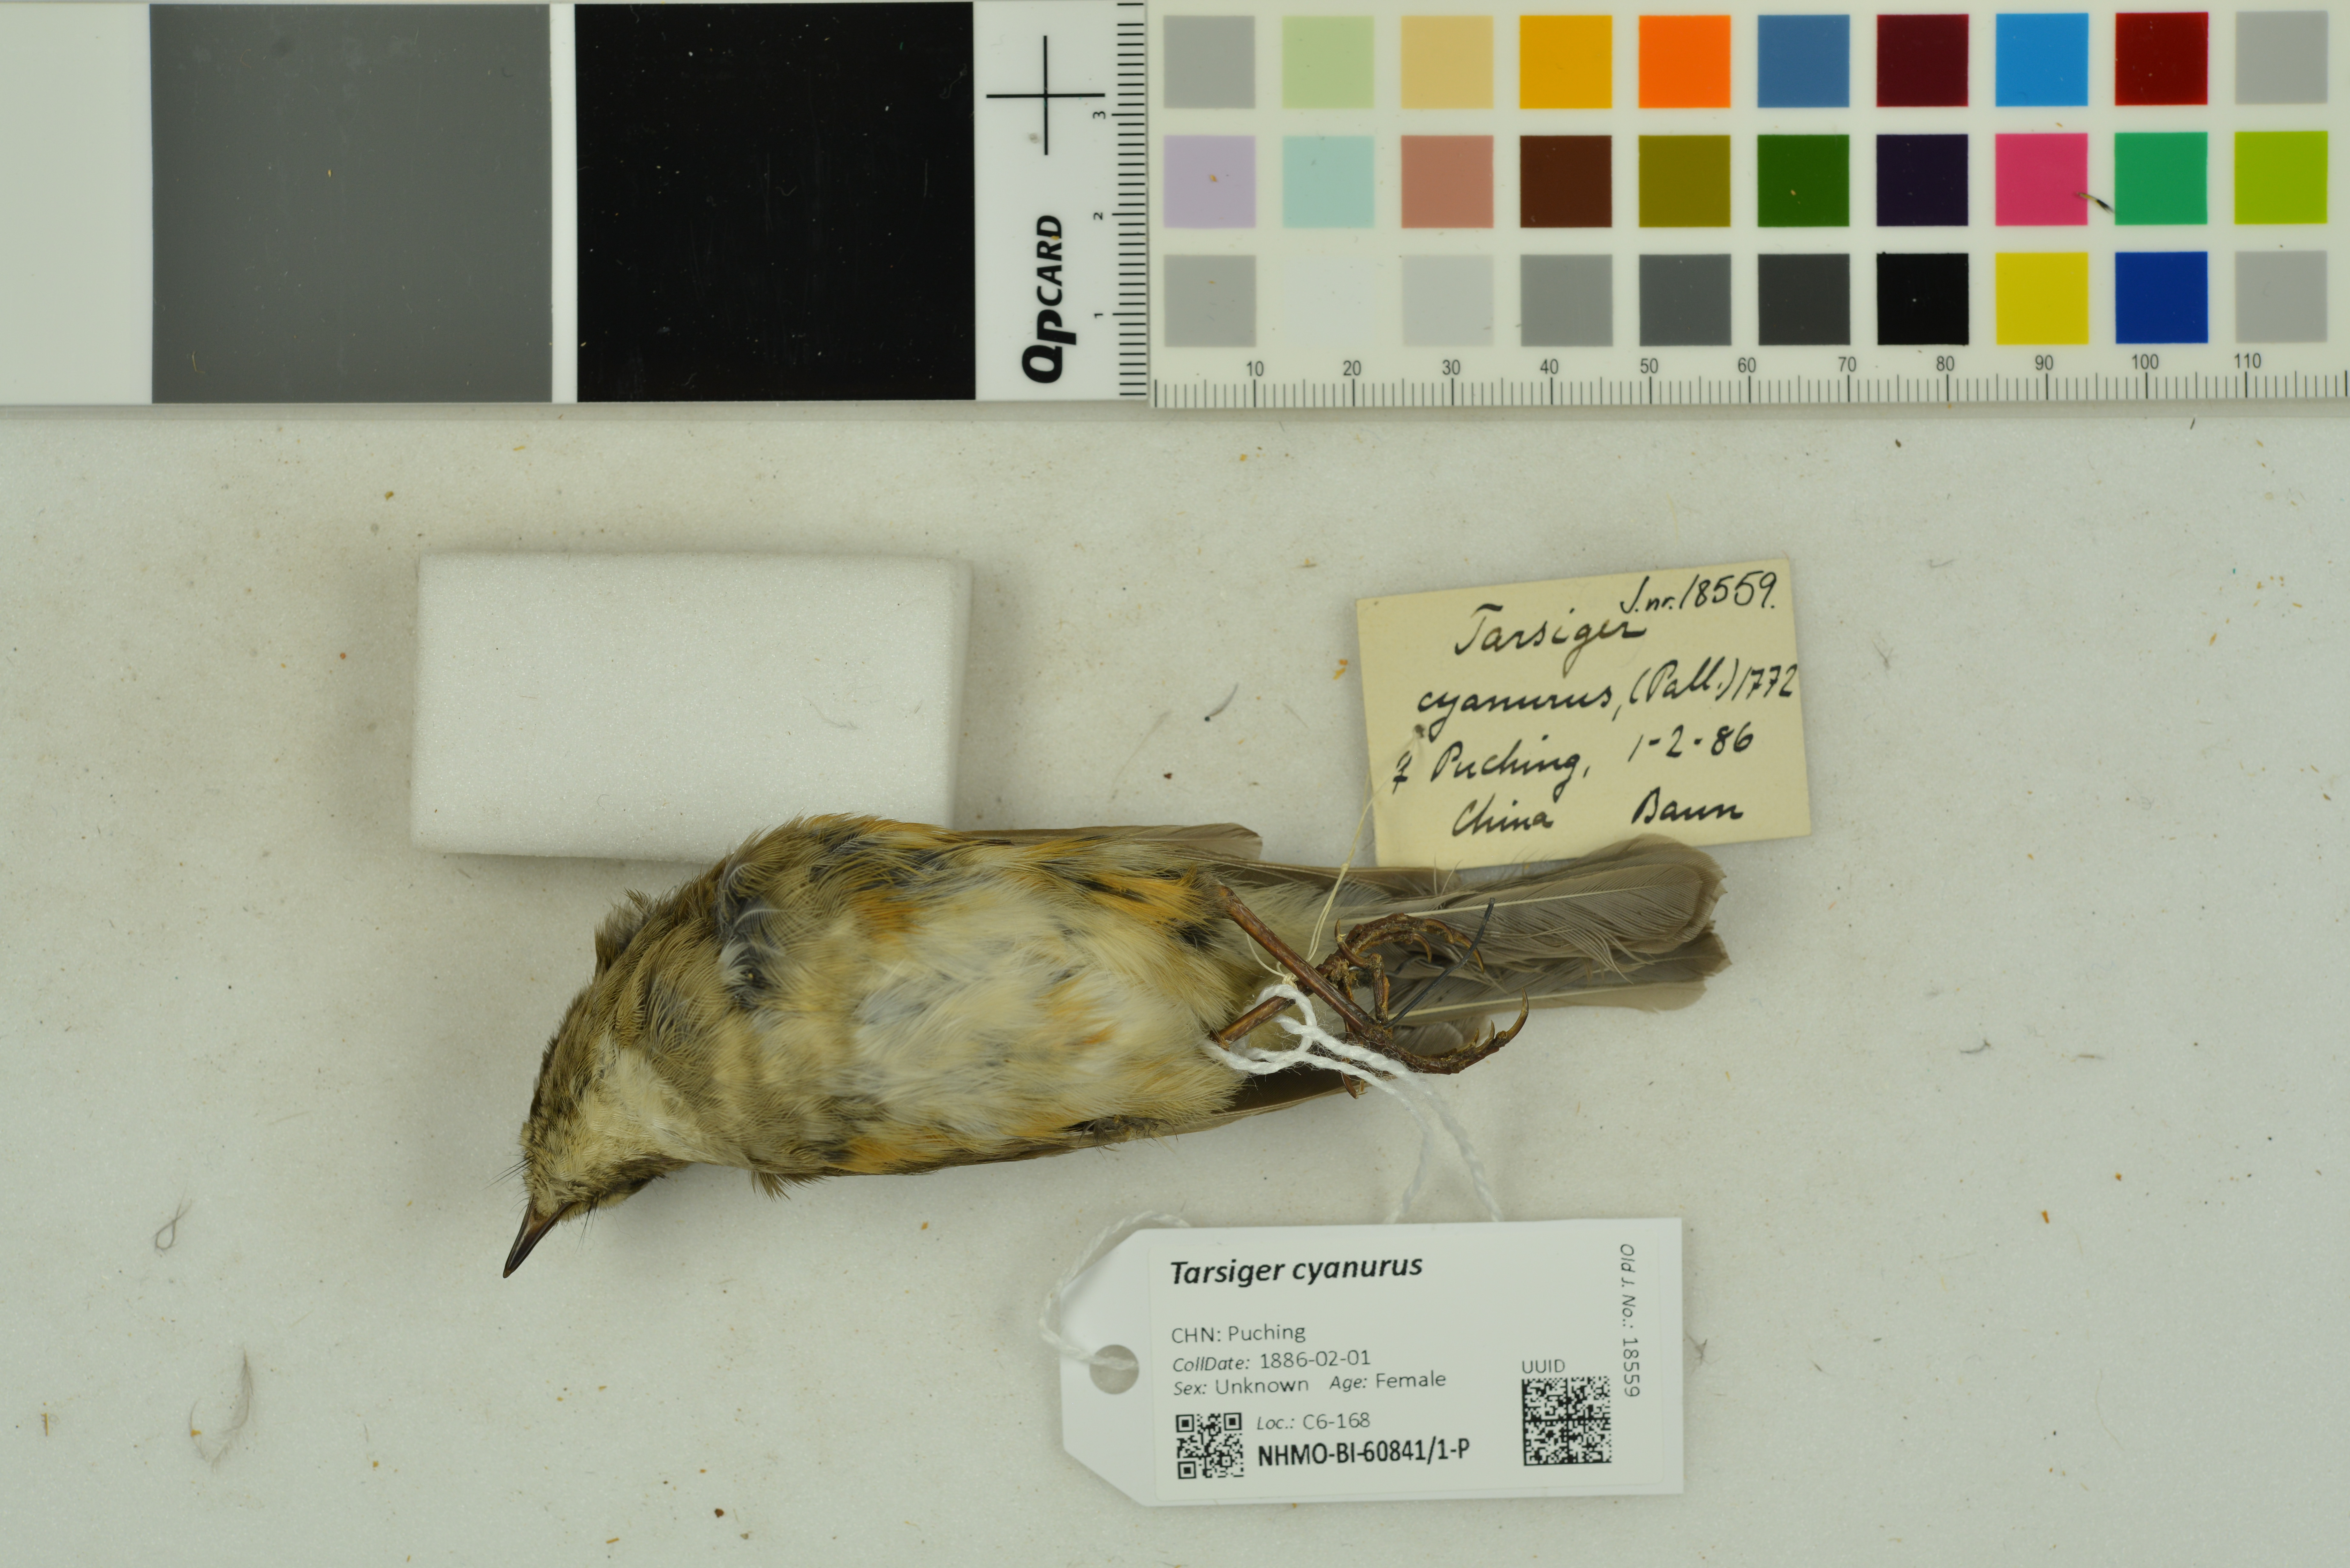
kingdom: Animalia
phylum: Chordata
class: Aves
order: Passeriformes
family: Muscicapidae
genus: Tarsiger
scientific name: Tarsiger cyanurus
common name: Red-flanked bluetail
